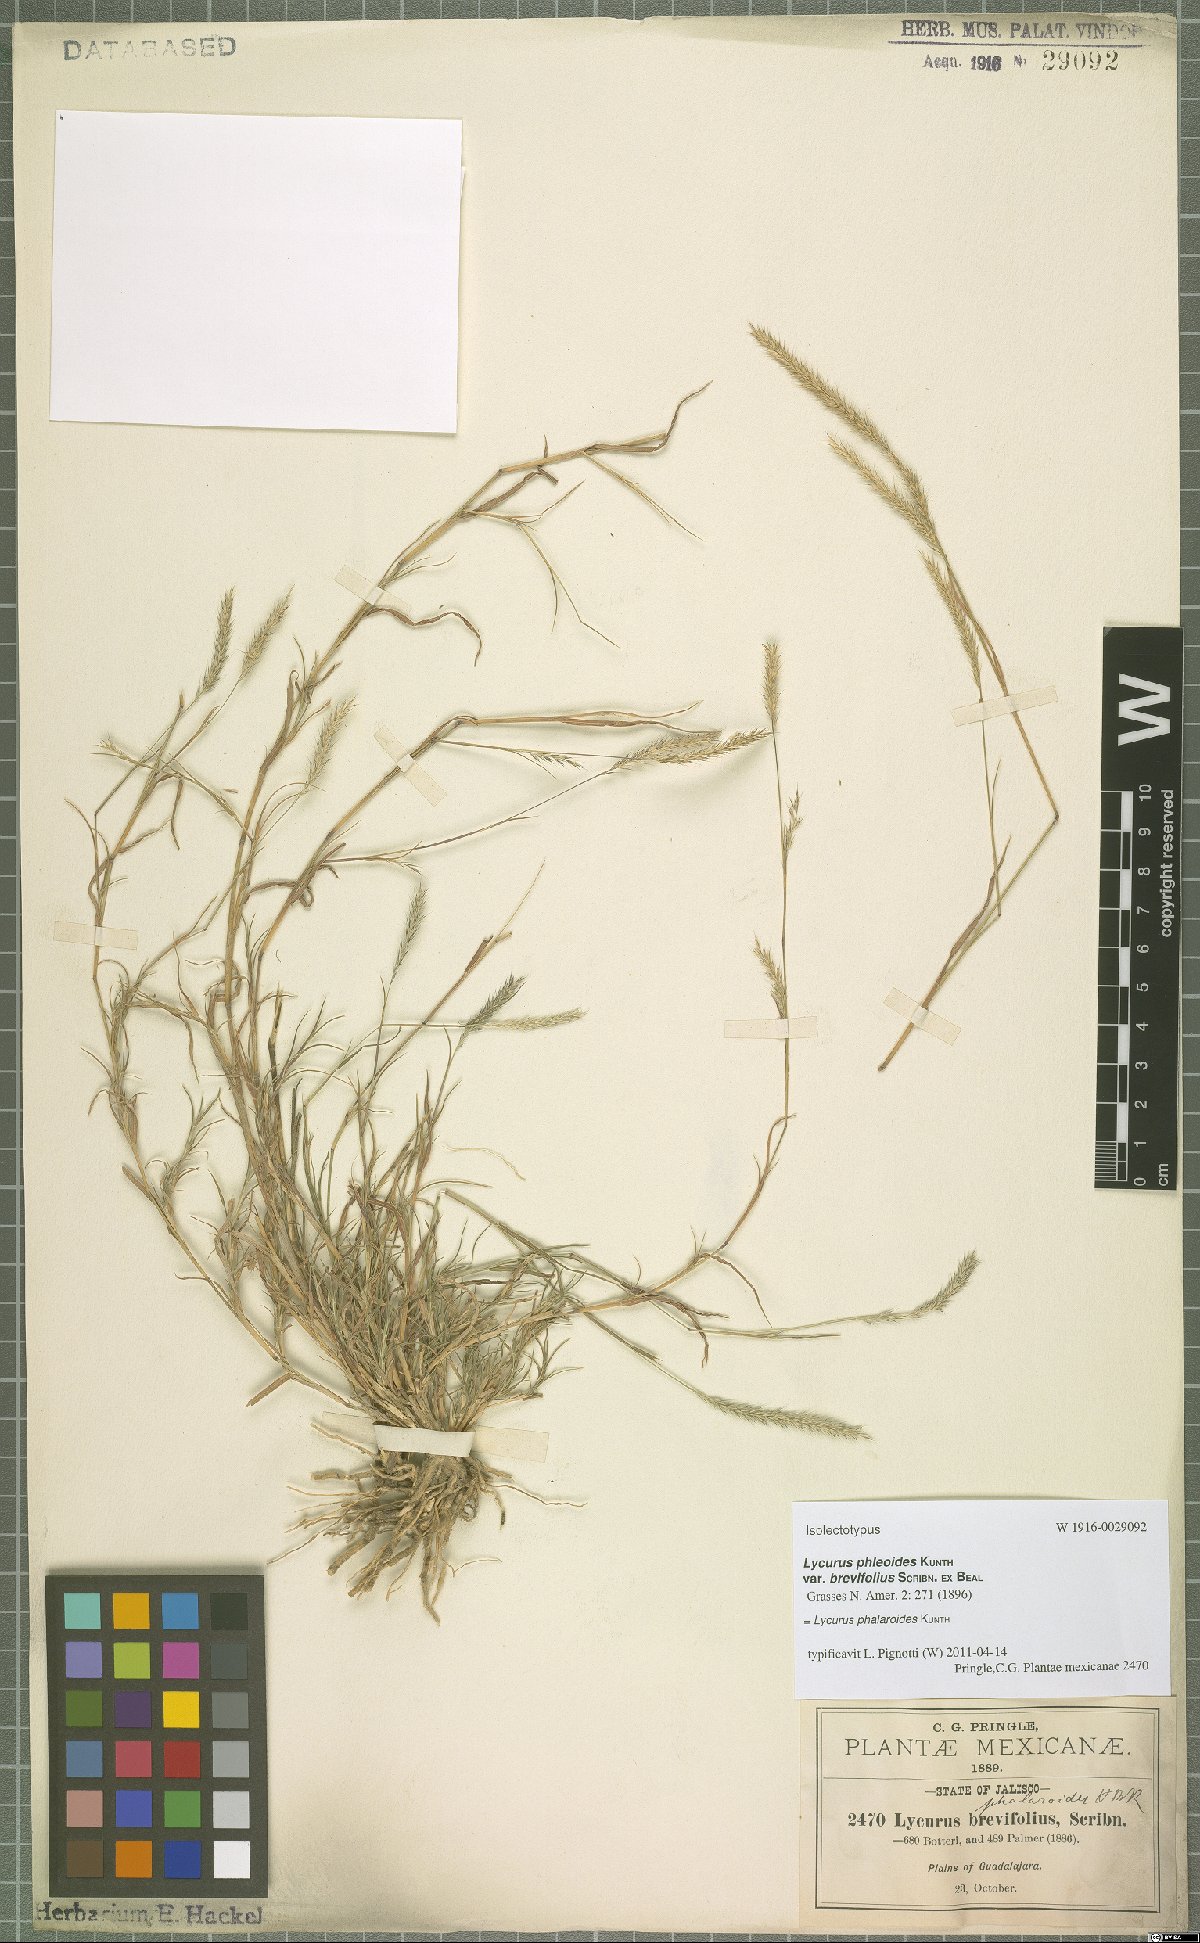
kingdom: Plantae
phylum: Tracheophyta
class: Liliopsida
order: Poales
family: Poaceae
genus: Muhlenbergia
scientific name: Muhlenbergia phalaroides
